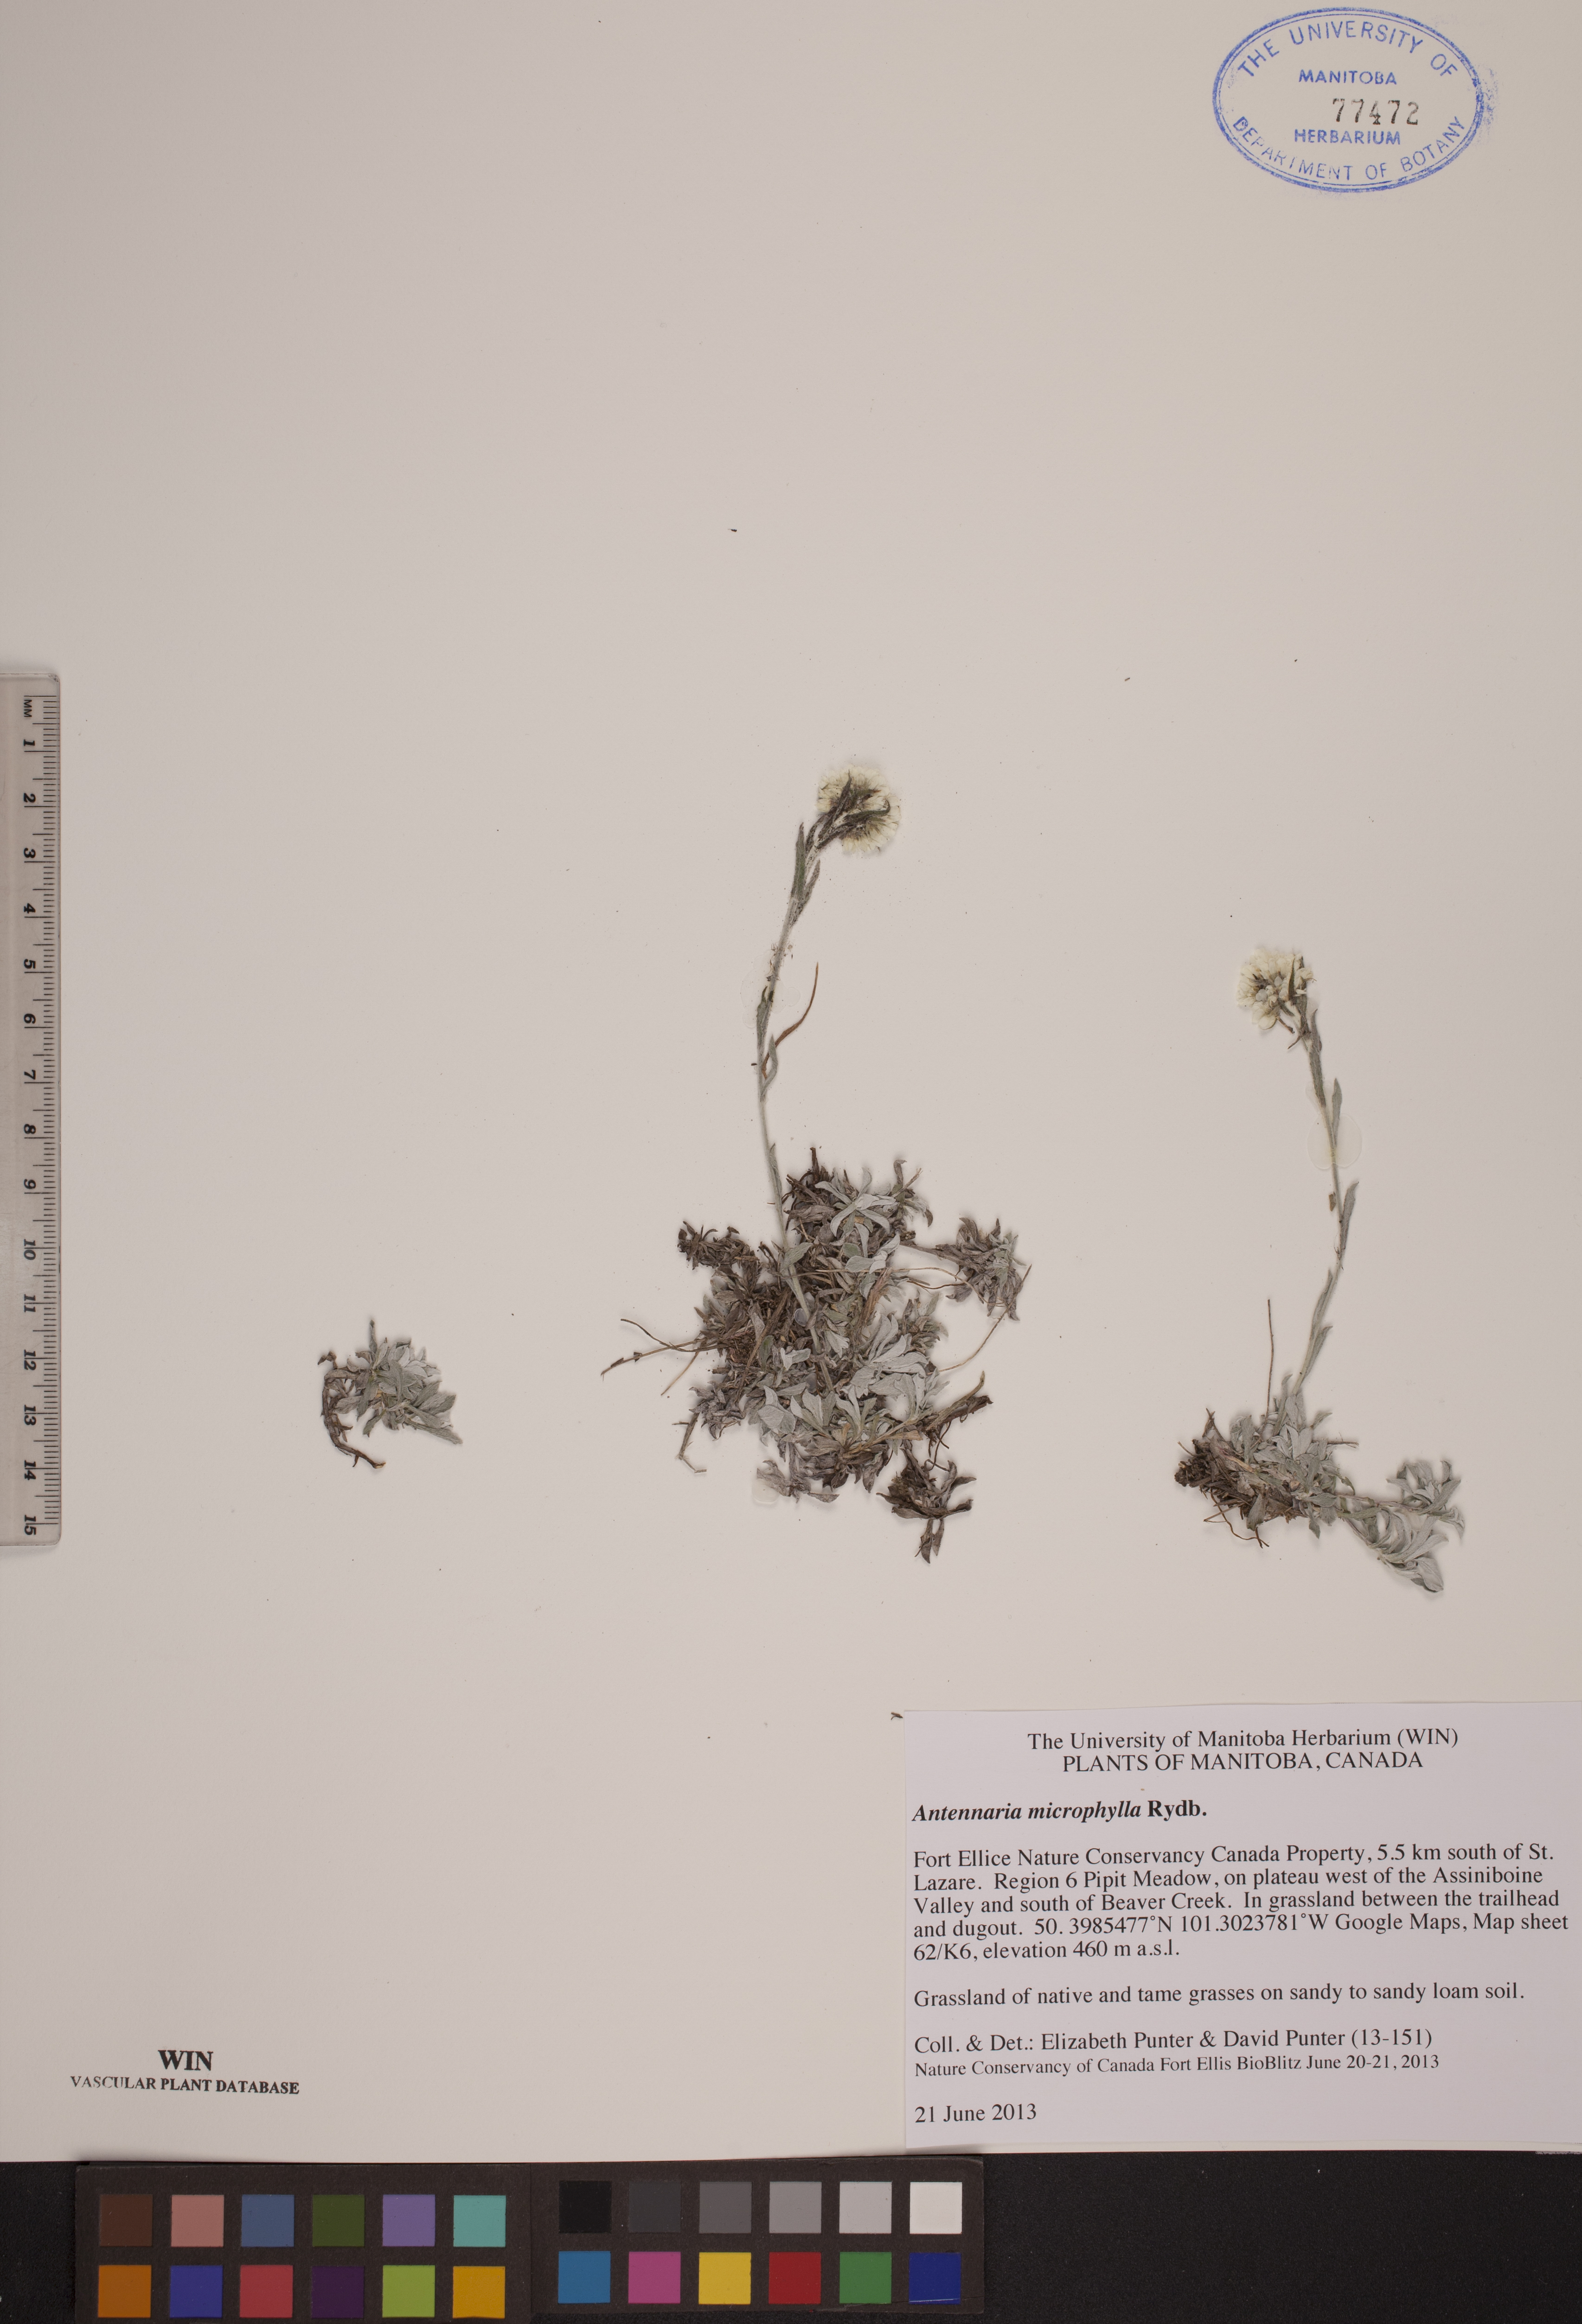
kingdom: Plantae
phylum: Tracheophyta
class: Magnoliopsida
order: Asterales
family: Asteraceae
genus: Antennaria
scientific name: Antennaria microphylla
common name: Littleleaf pussytoes
